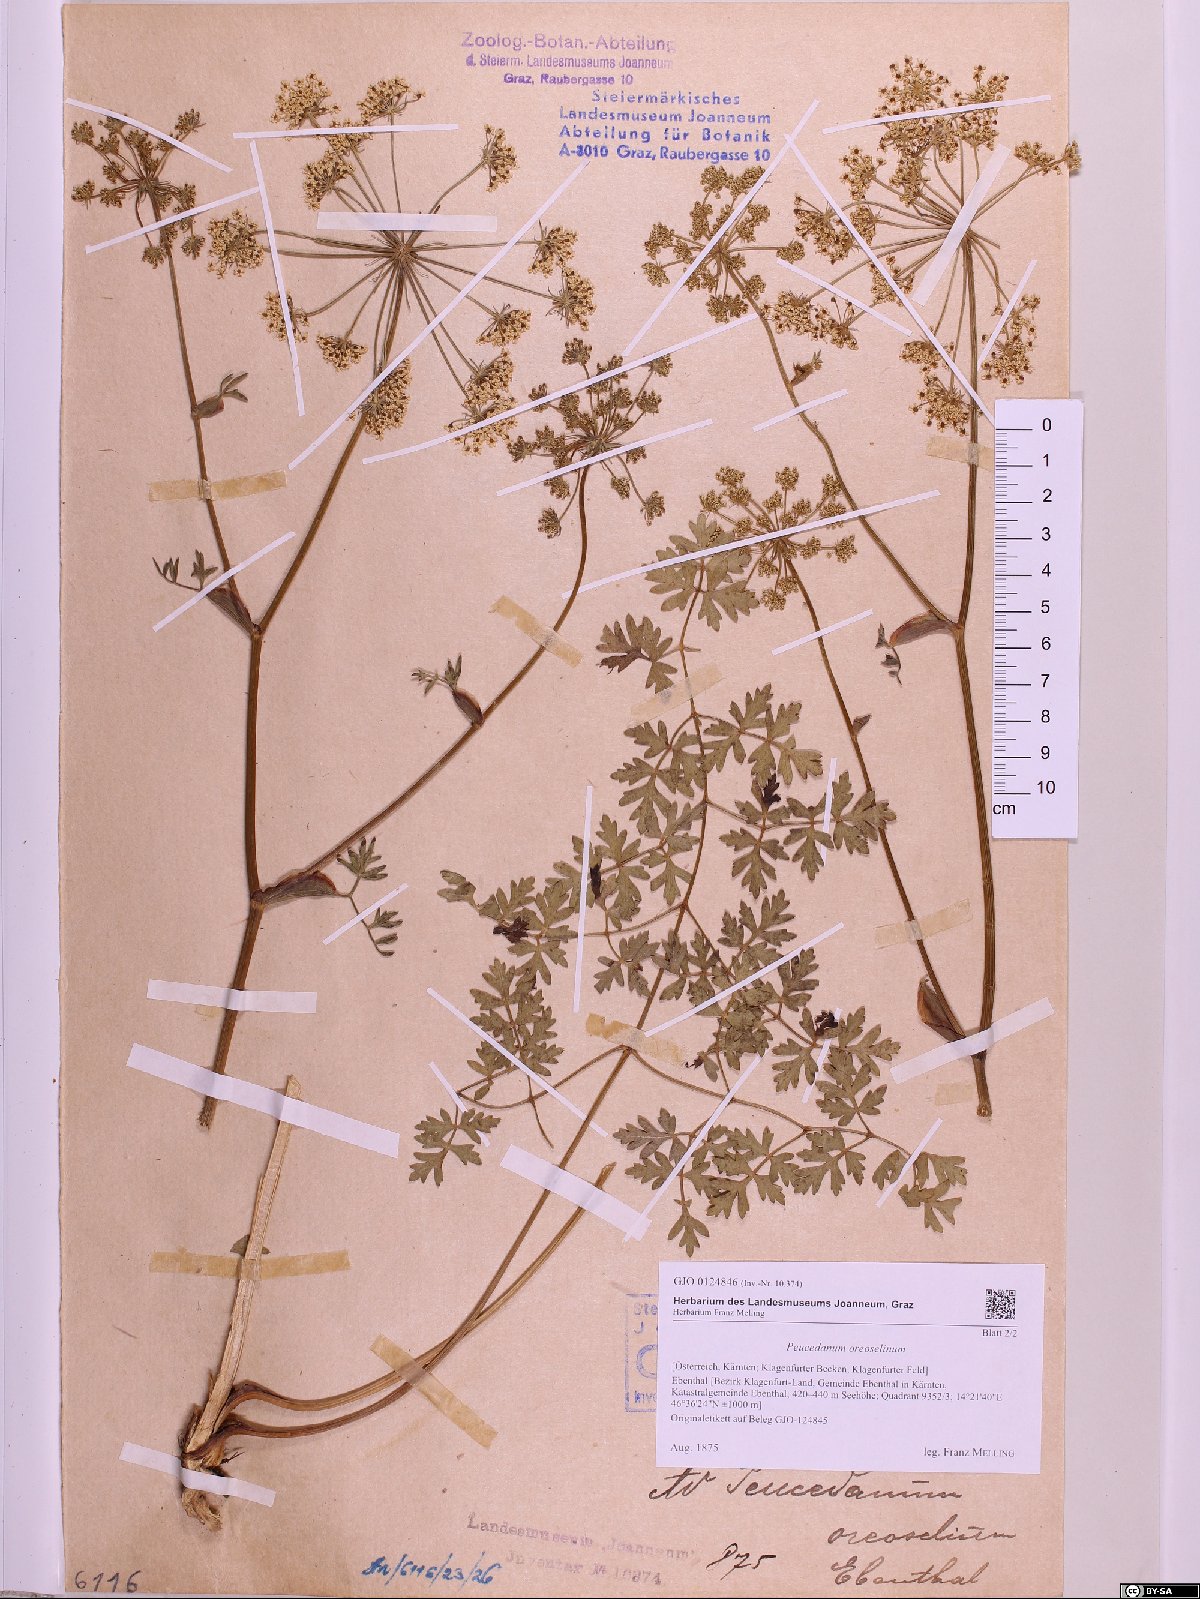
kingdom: Plantae
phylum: Tracheophyta
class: Magnoliopsida
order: Apiales
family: Apiaceae
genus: Oreoselinum
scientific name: Oreoselinum nigrum
